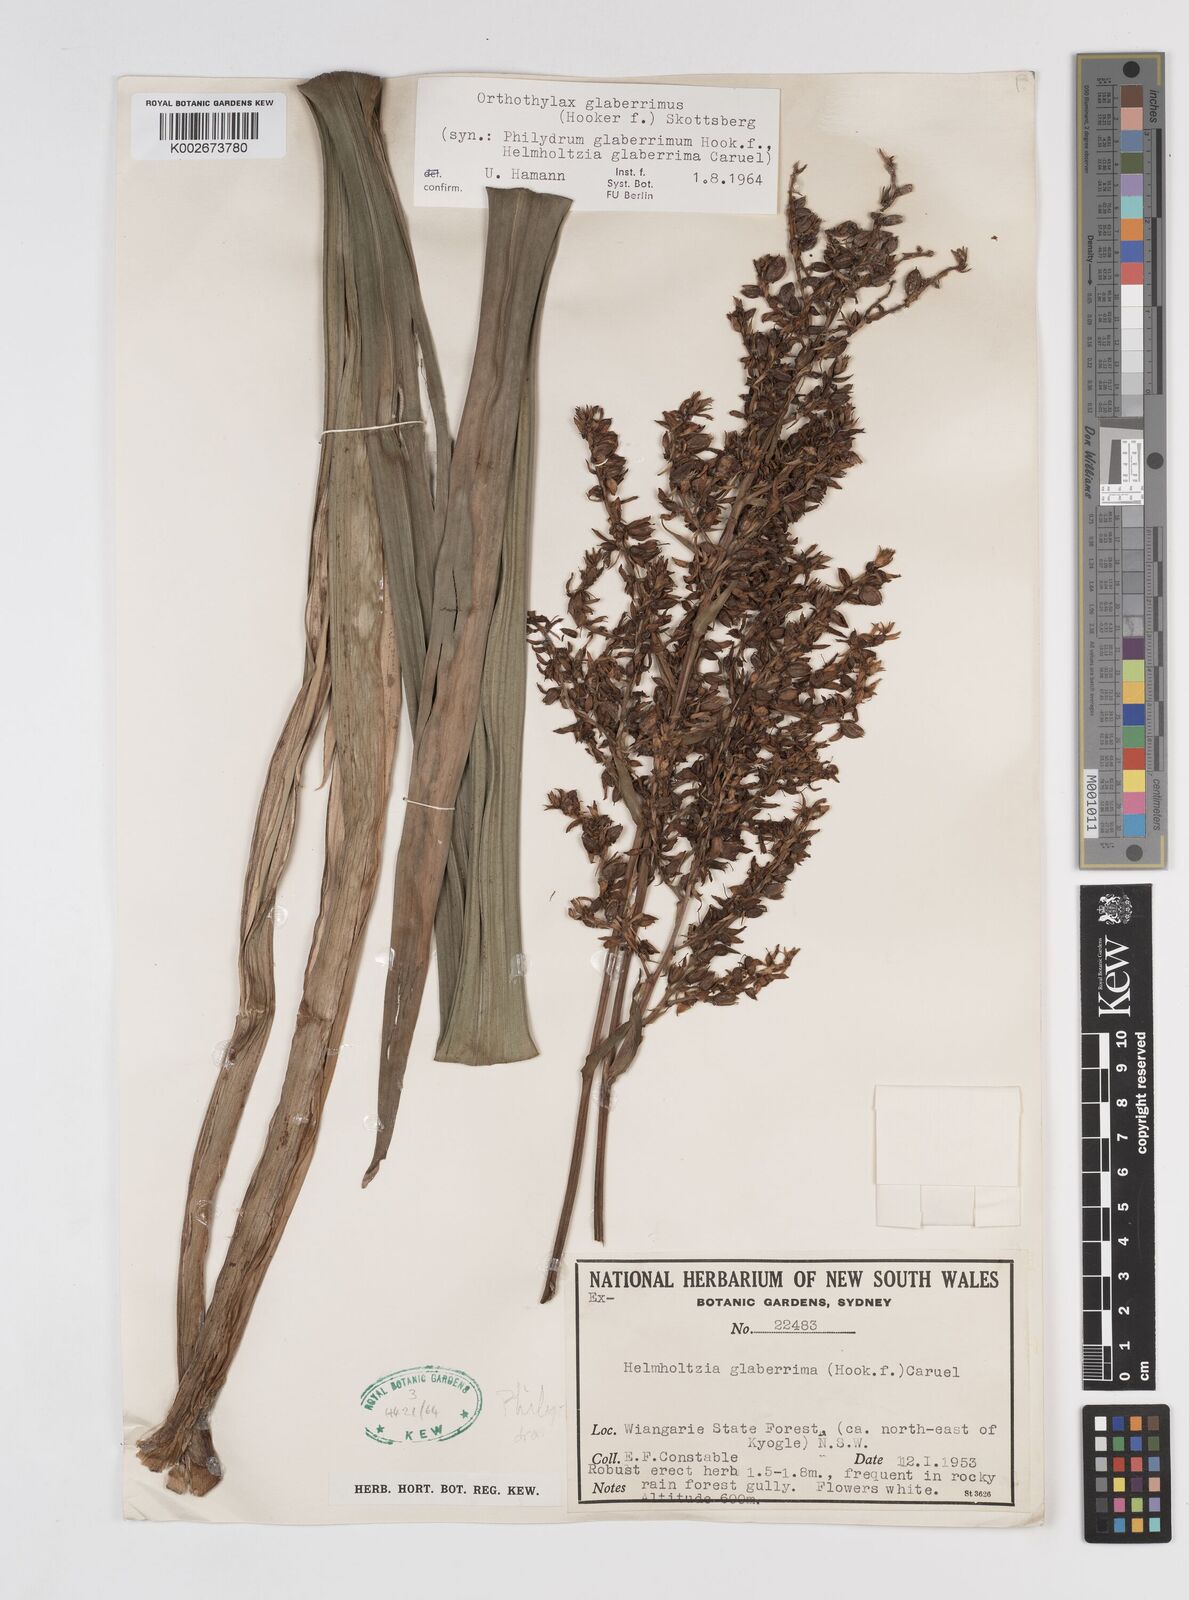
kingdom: Plantae
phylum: Tracheophyta
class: Liliopsida
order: Commelinales
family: Philydraceae
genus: Helmholtzia
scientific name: Helmholtzia glaberrima
